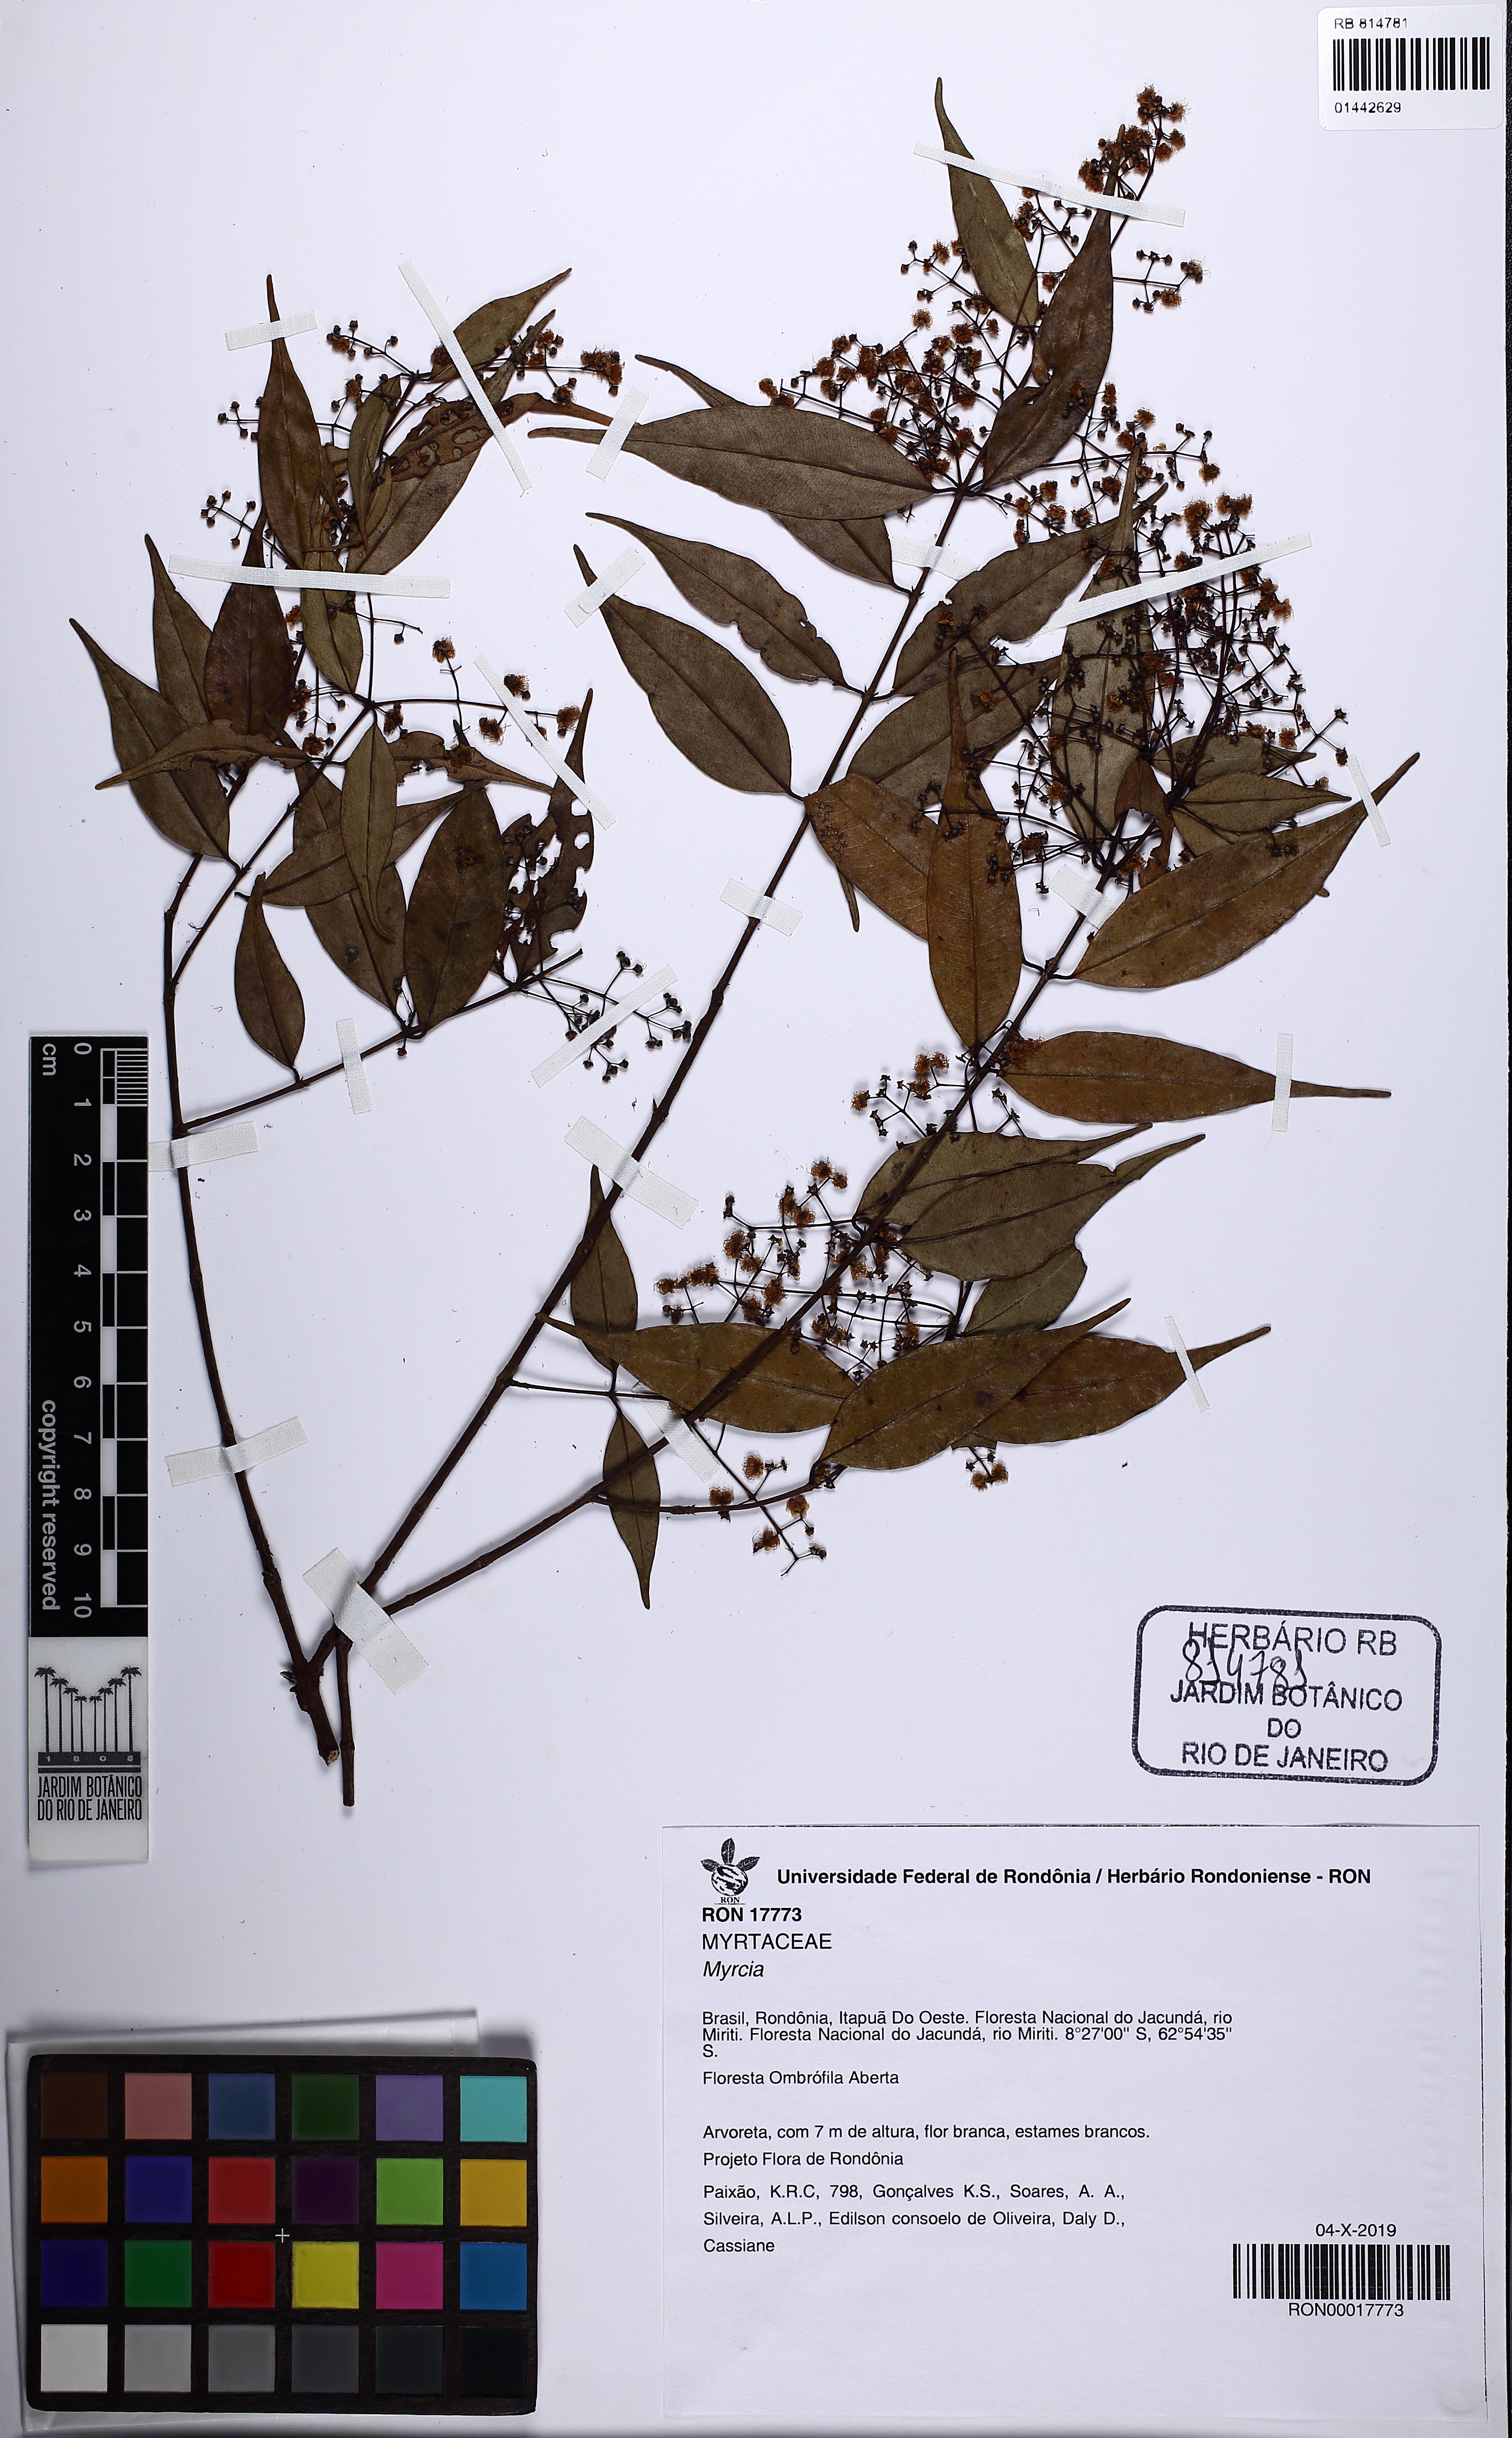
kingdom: Plantae
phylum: Tracheophyta
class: Magnoliopsida
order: Myrtales
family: Myrtaceae
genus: Myrcia
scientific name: Myrcia
